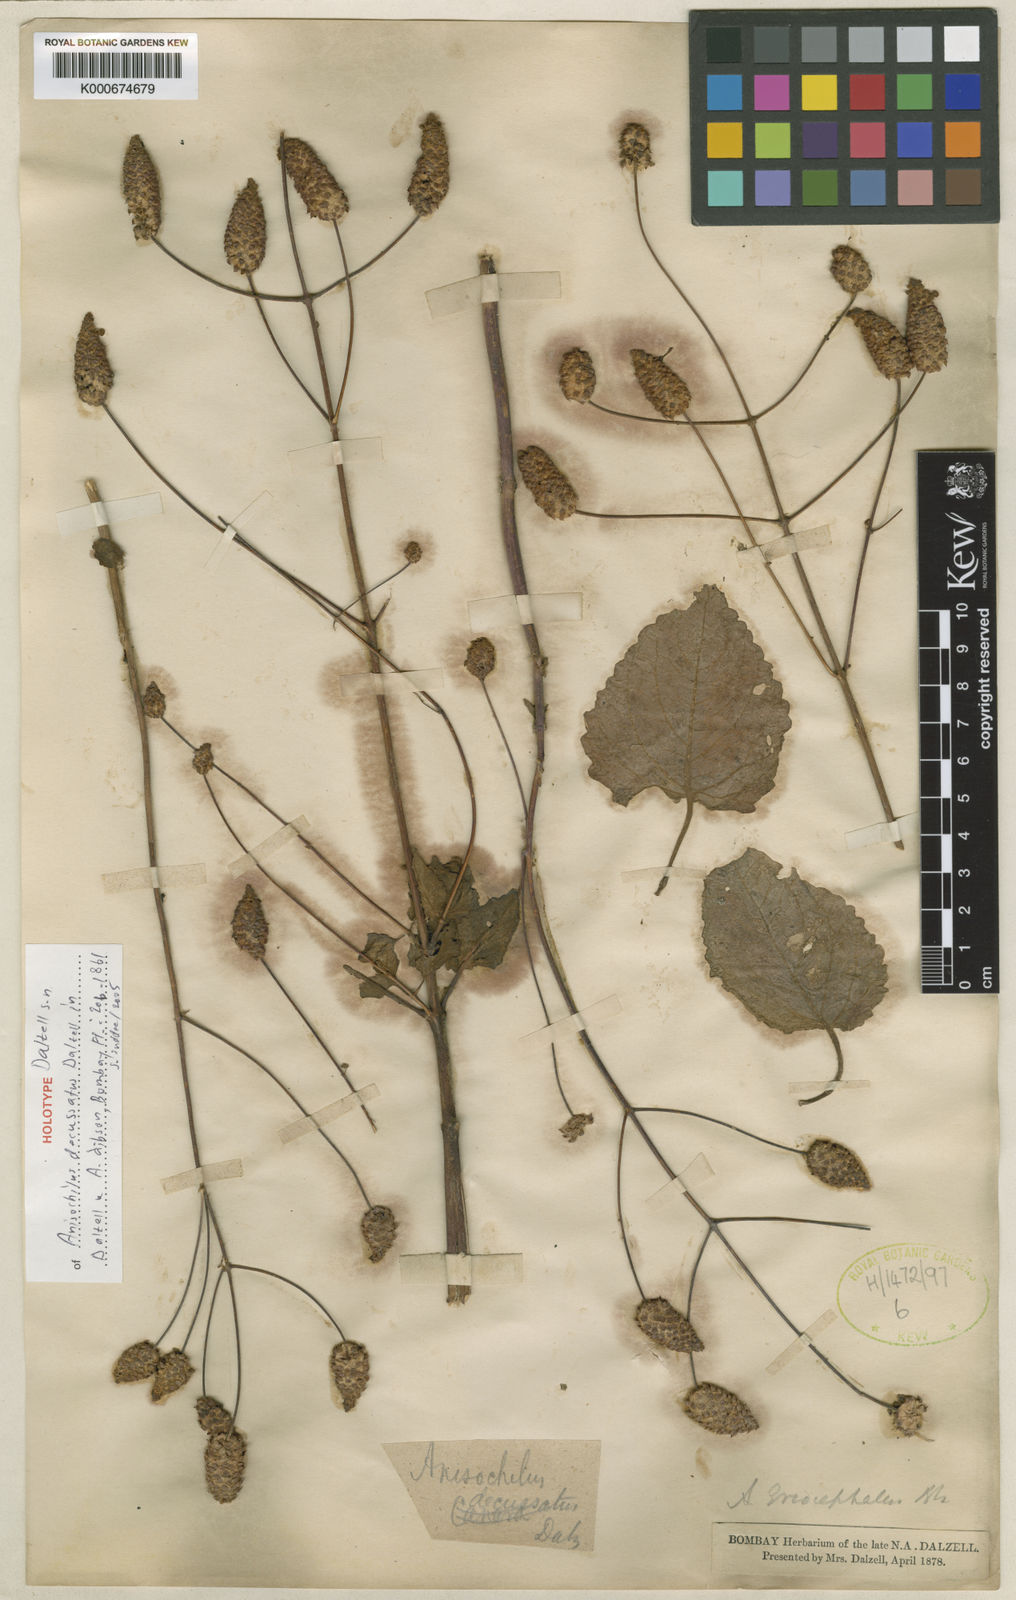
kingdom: Plantae
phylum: Tracheophyta
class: Magnoliopsida
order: Lamiales
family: Lamiaceae
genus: Coleus
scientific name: Coleus strobilifer
